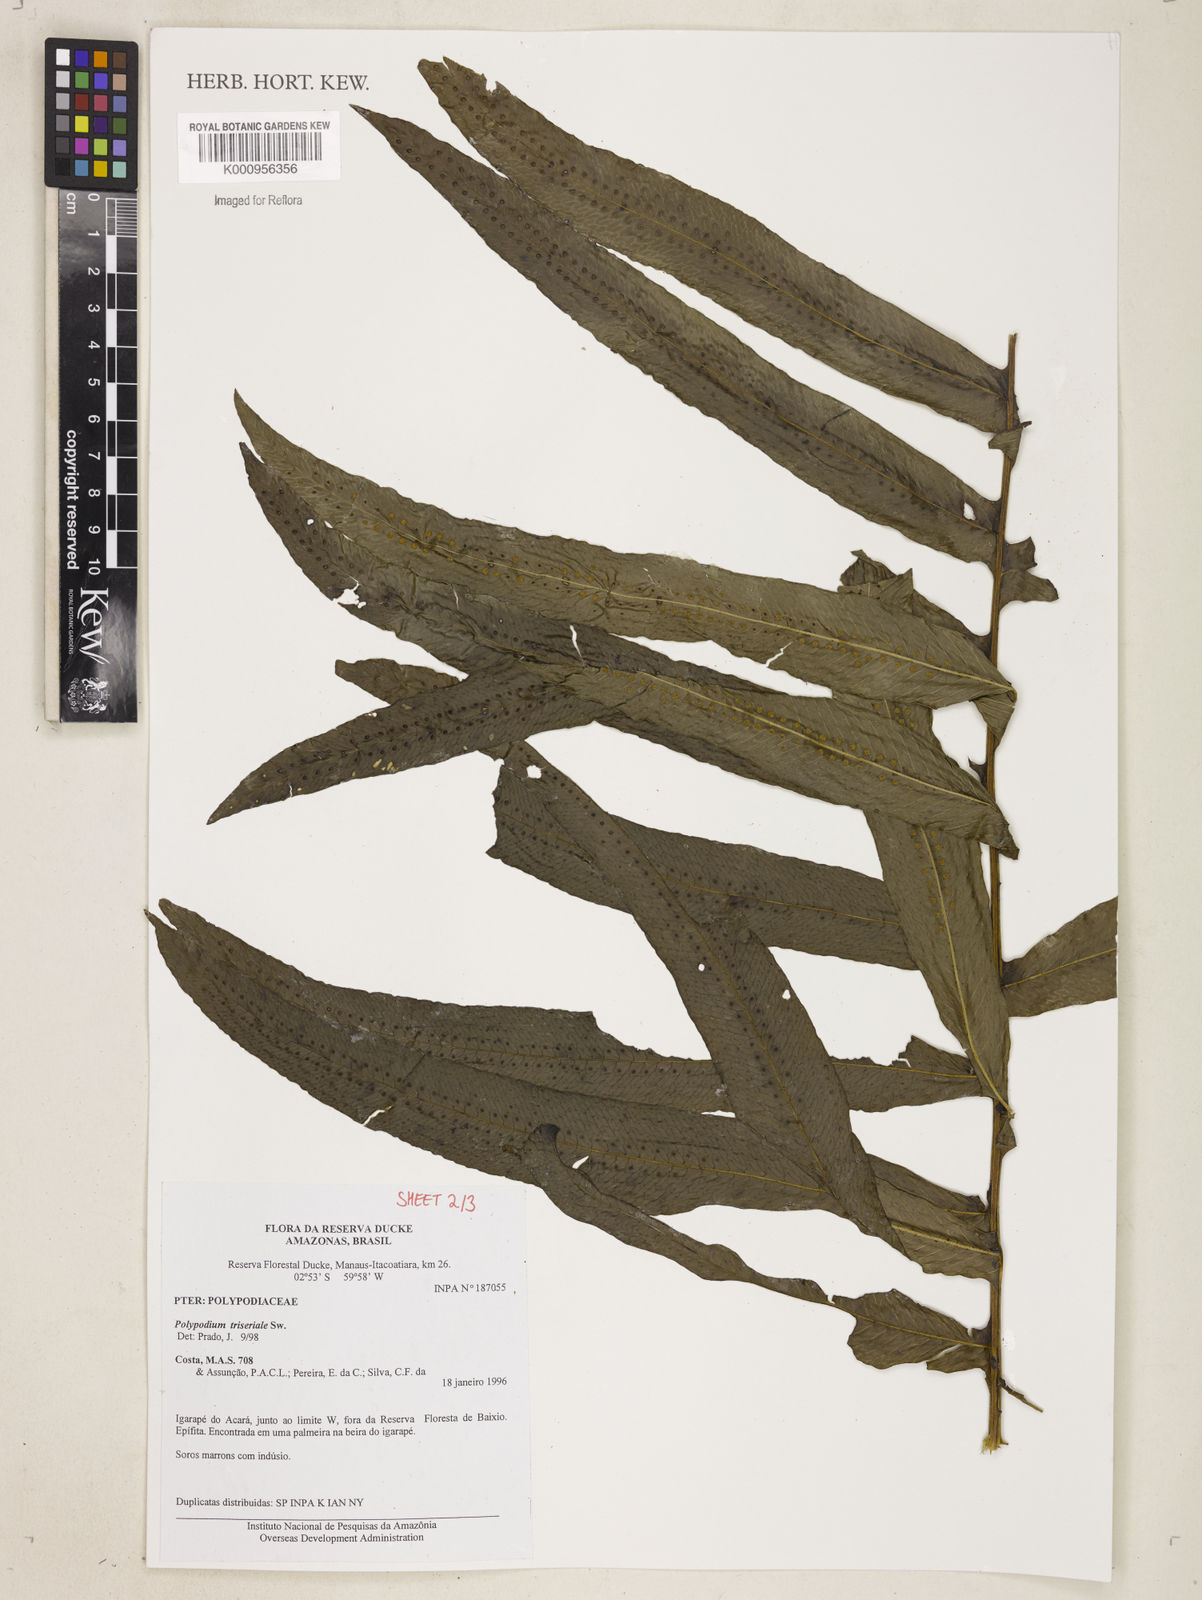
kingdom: Plantae
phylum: Tracheophyta
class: Polypodiopsida
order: Polypodiales
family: Polypodiaceae
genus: Serpocaulon
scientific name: Serpocaulon triseriale
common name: Angle-vein fern
